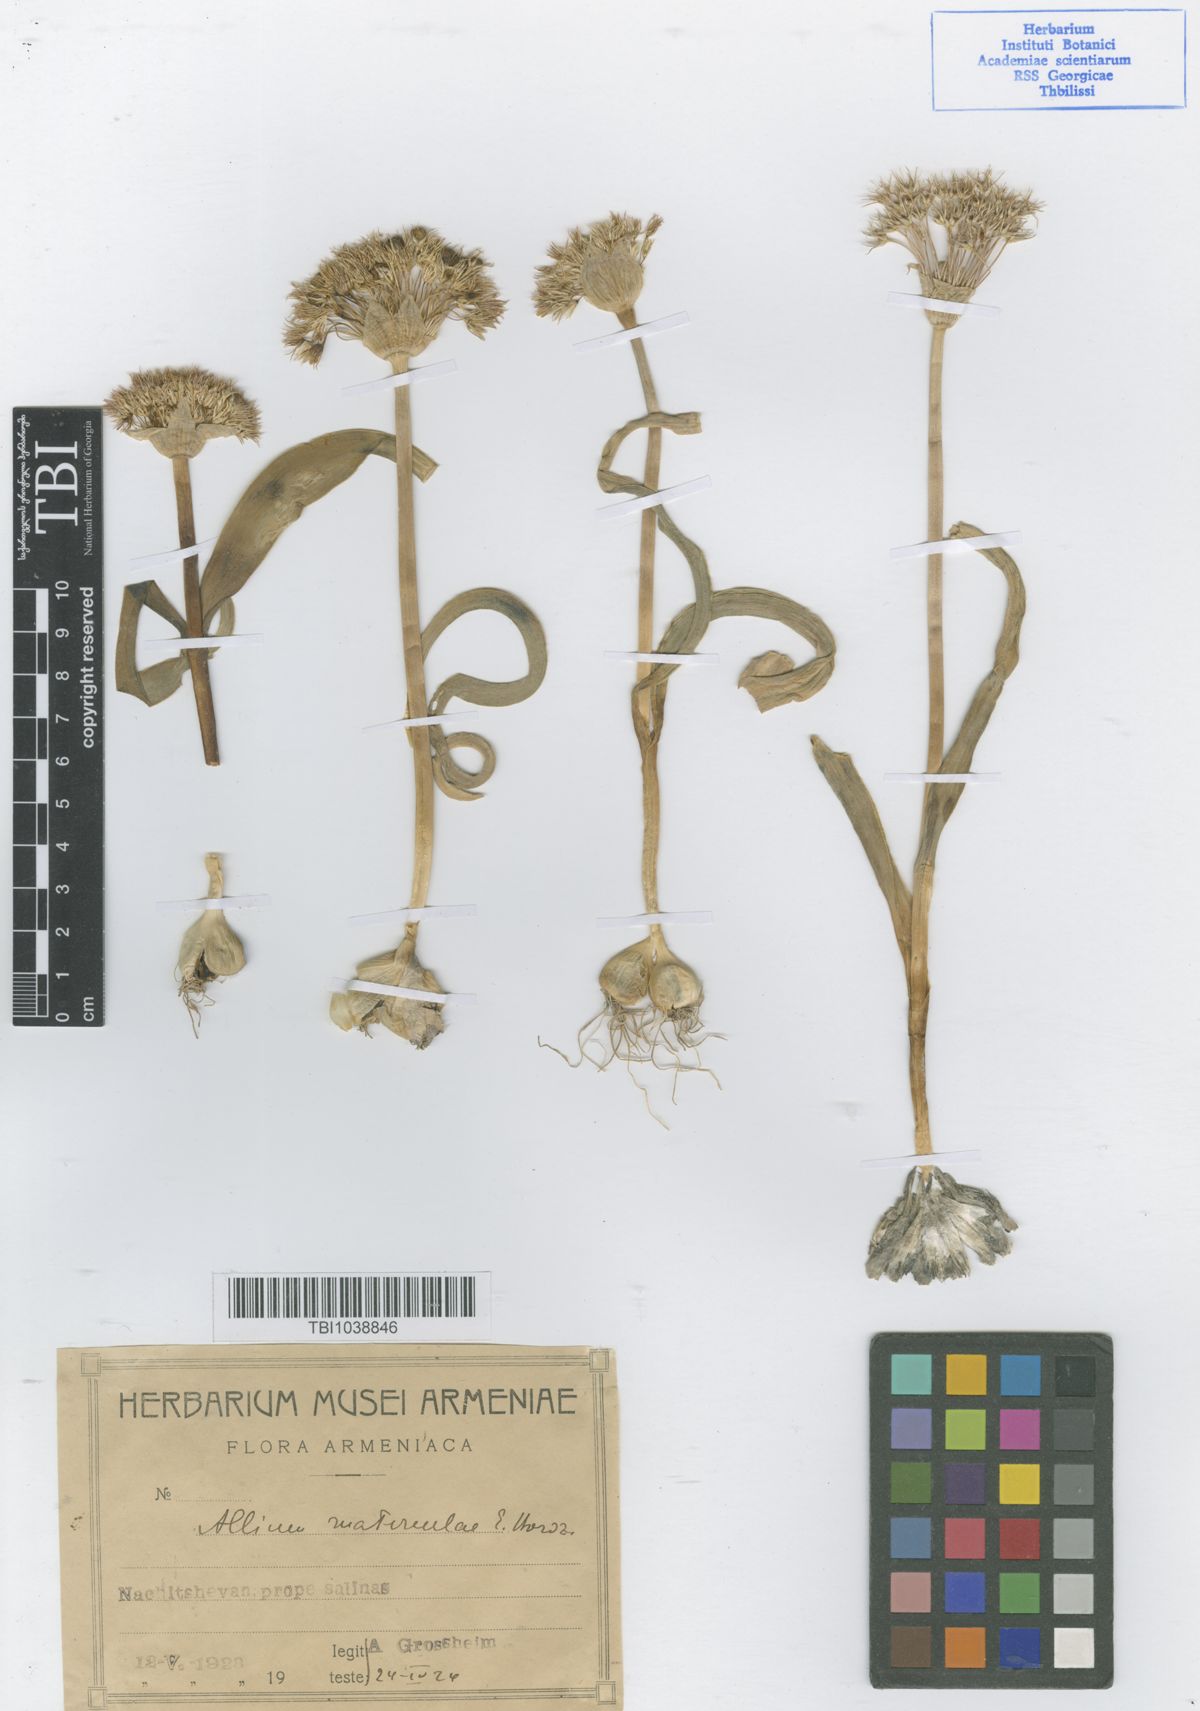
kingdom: Plantae
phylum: Tracheophyta
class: Liliopsida
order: Asparagales
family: Amaryllidaceae
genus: Allium
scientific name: Allium materculae
